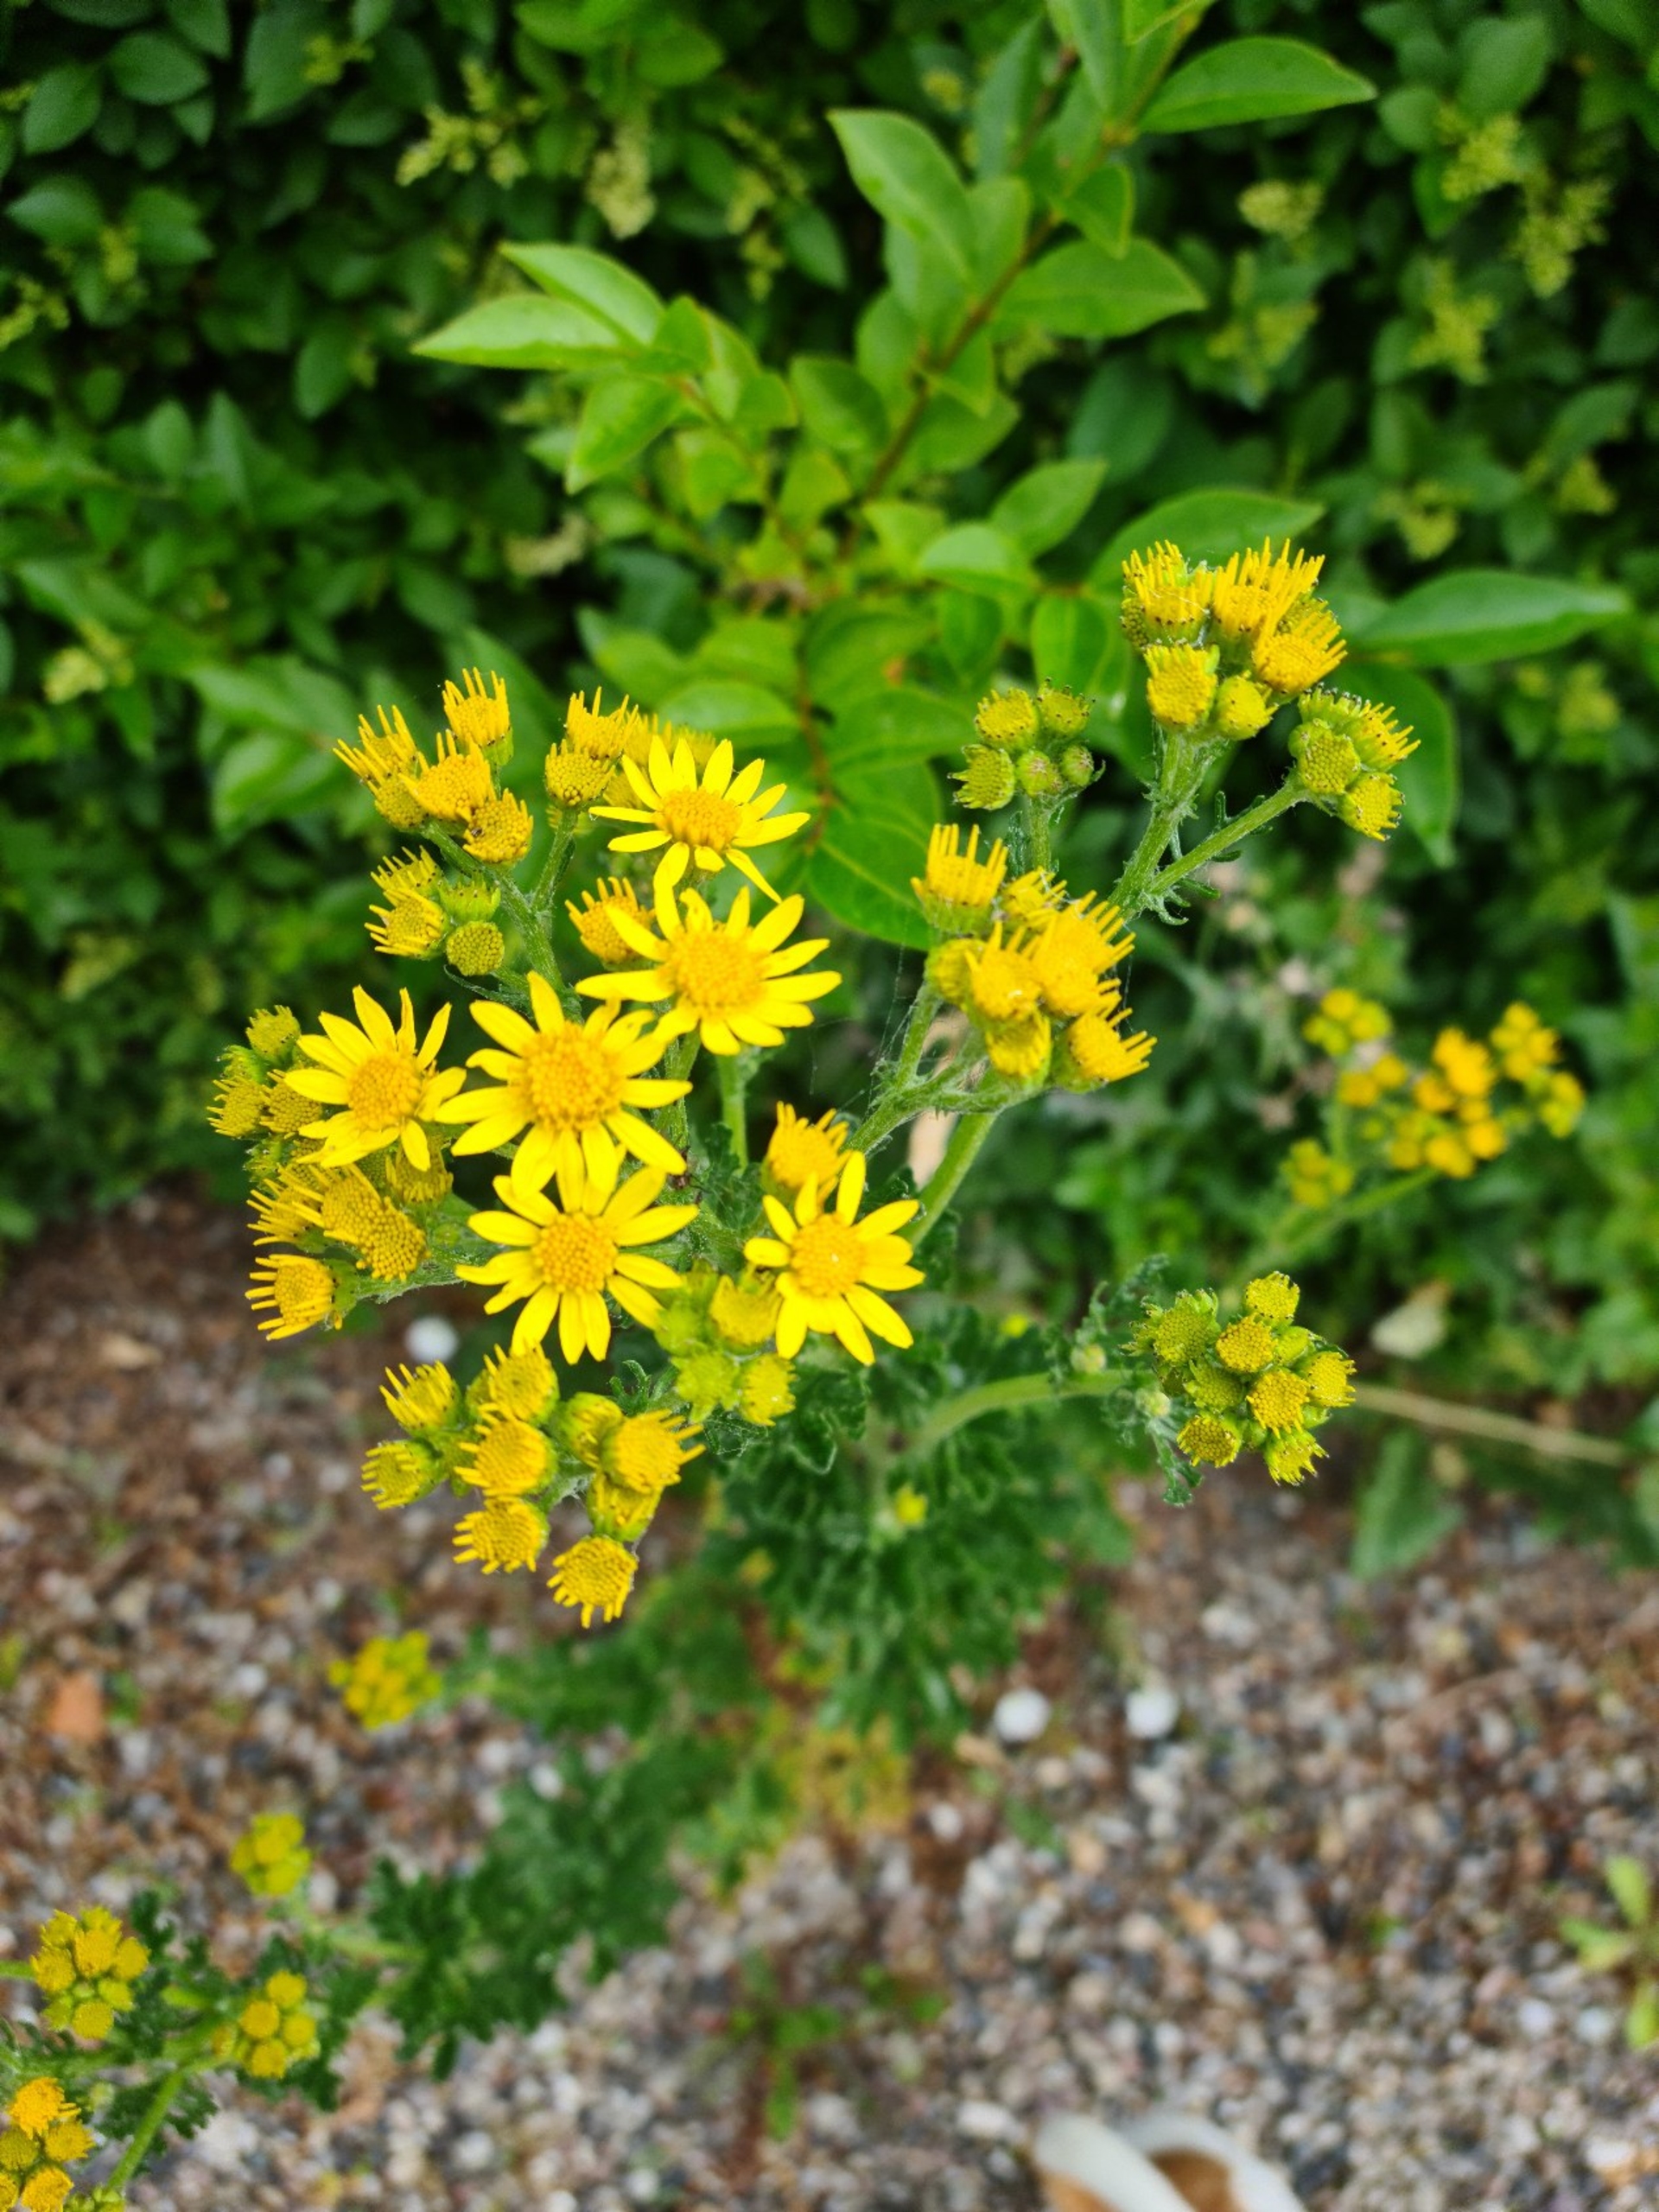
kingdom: Plantae
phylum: Tracheophyta
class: Magnoliopsida
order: Asterales
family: Asteraceae
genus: Jacobaea
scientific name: Jacobaea vulgaris
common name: Eng-brandbæger
